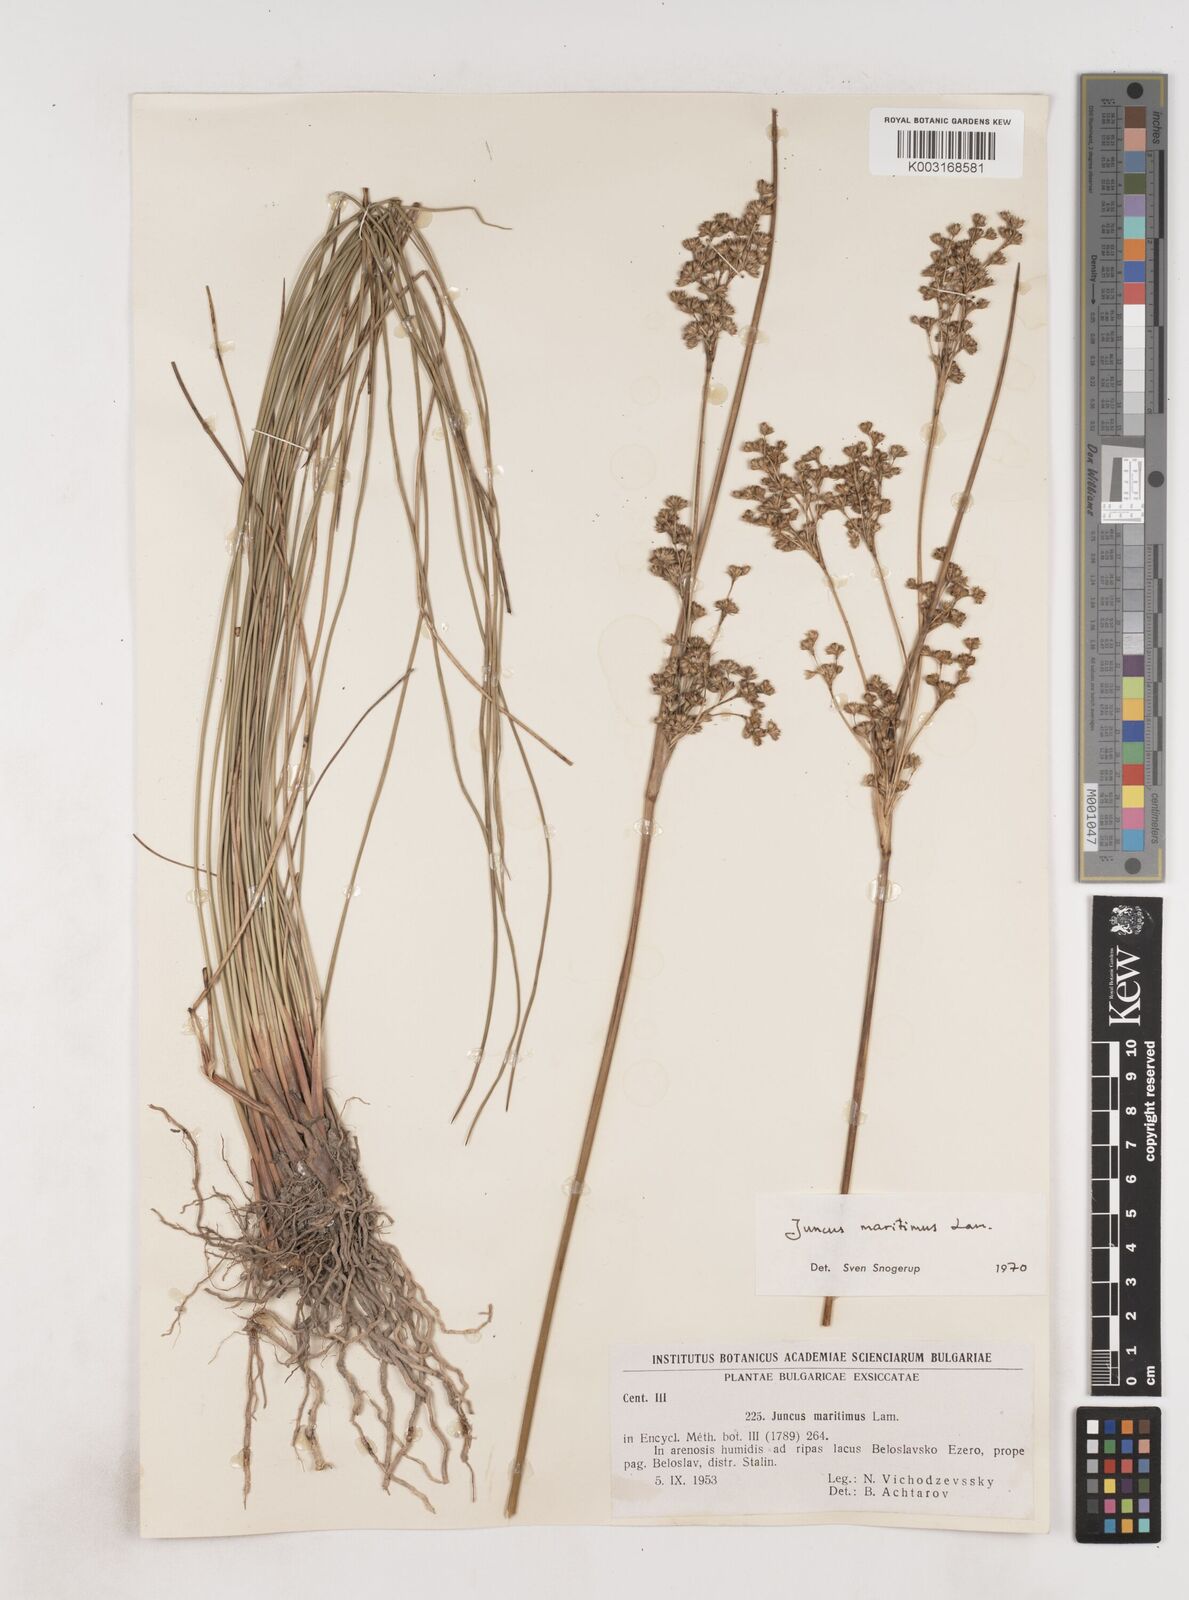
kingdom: Plantae
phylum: Tracheophyta
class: Liliopsida
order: Poales
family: Juncaceae
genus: Juncus
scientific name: Juncus maritimus
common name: Sea rush
